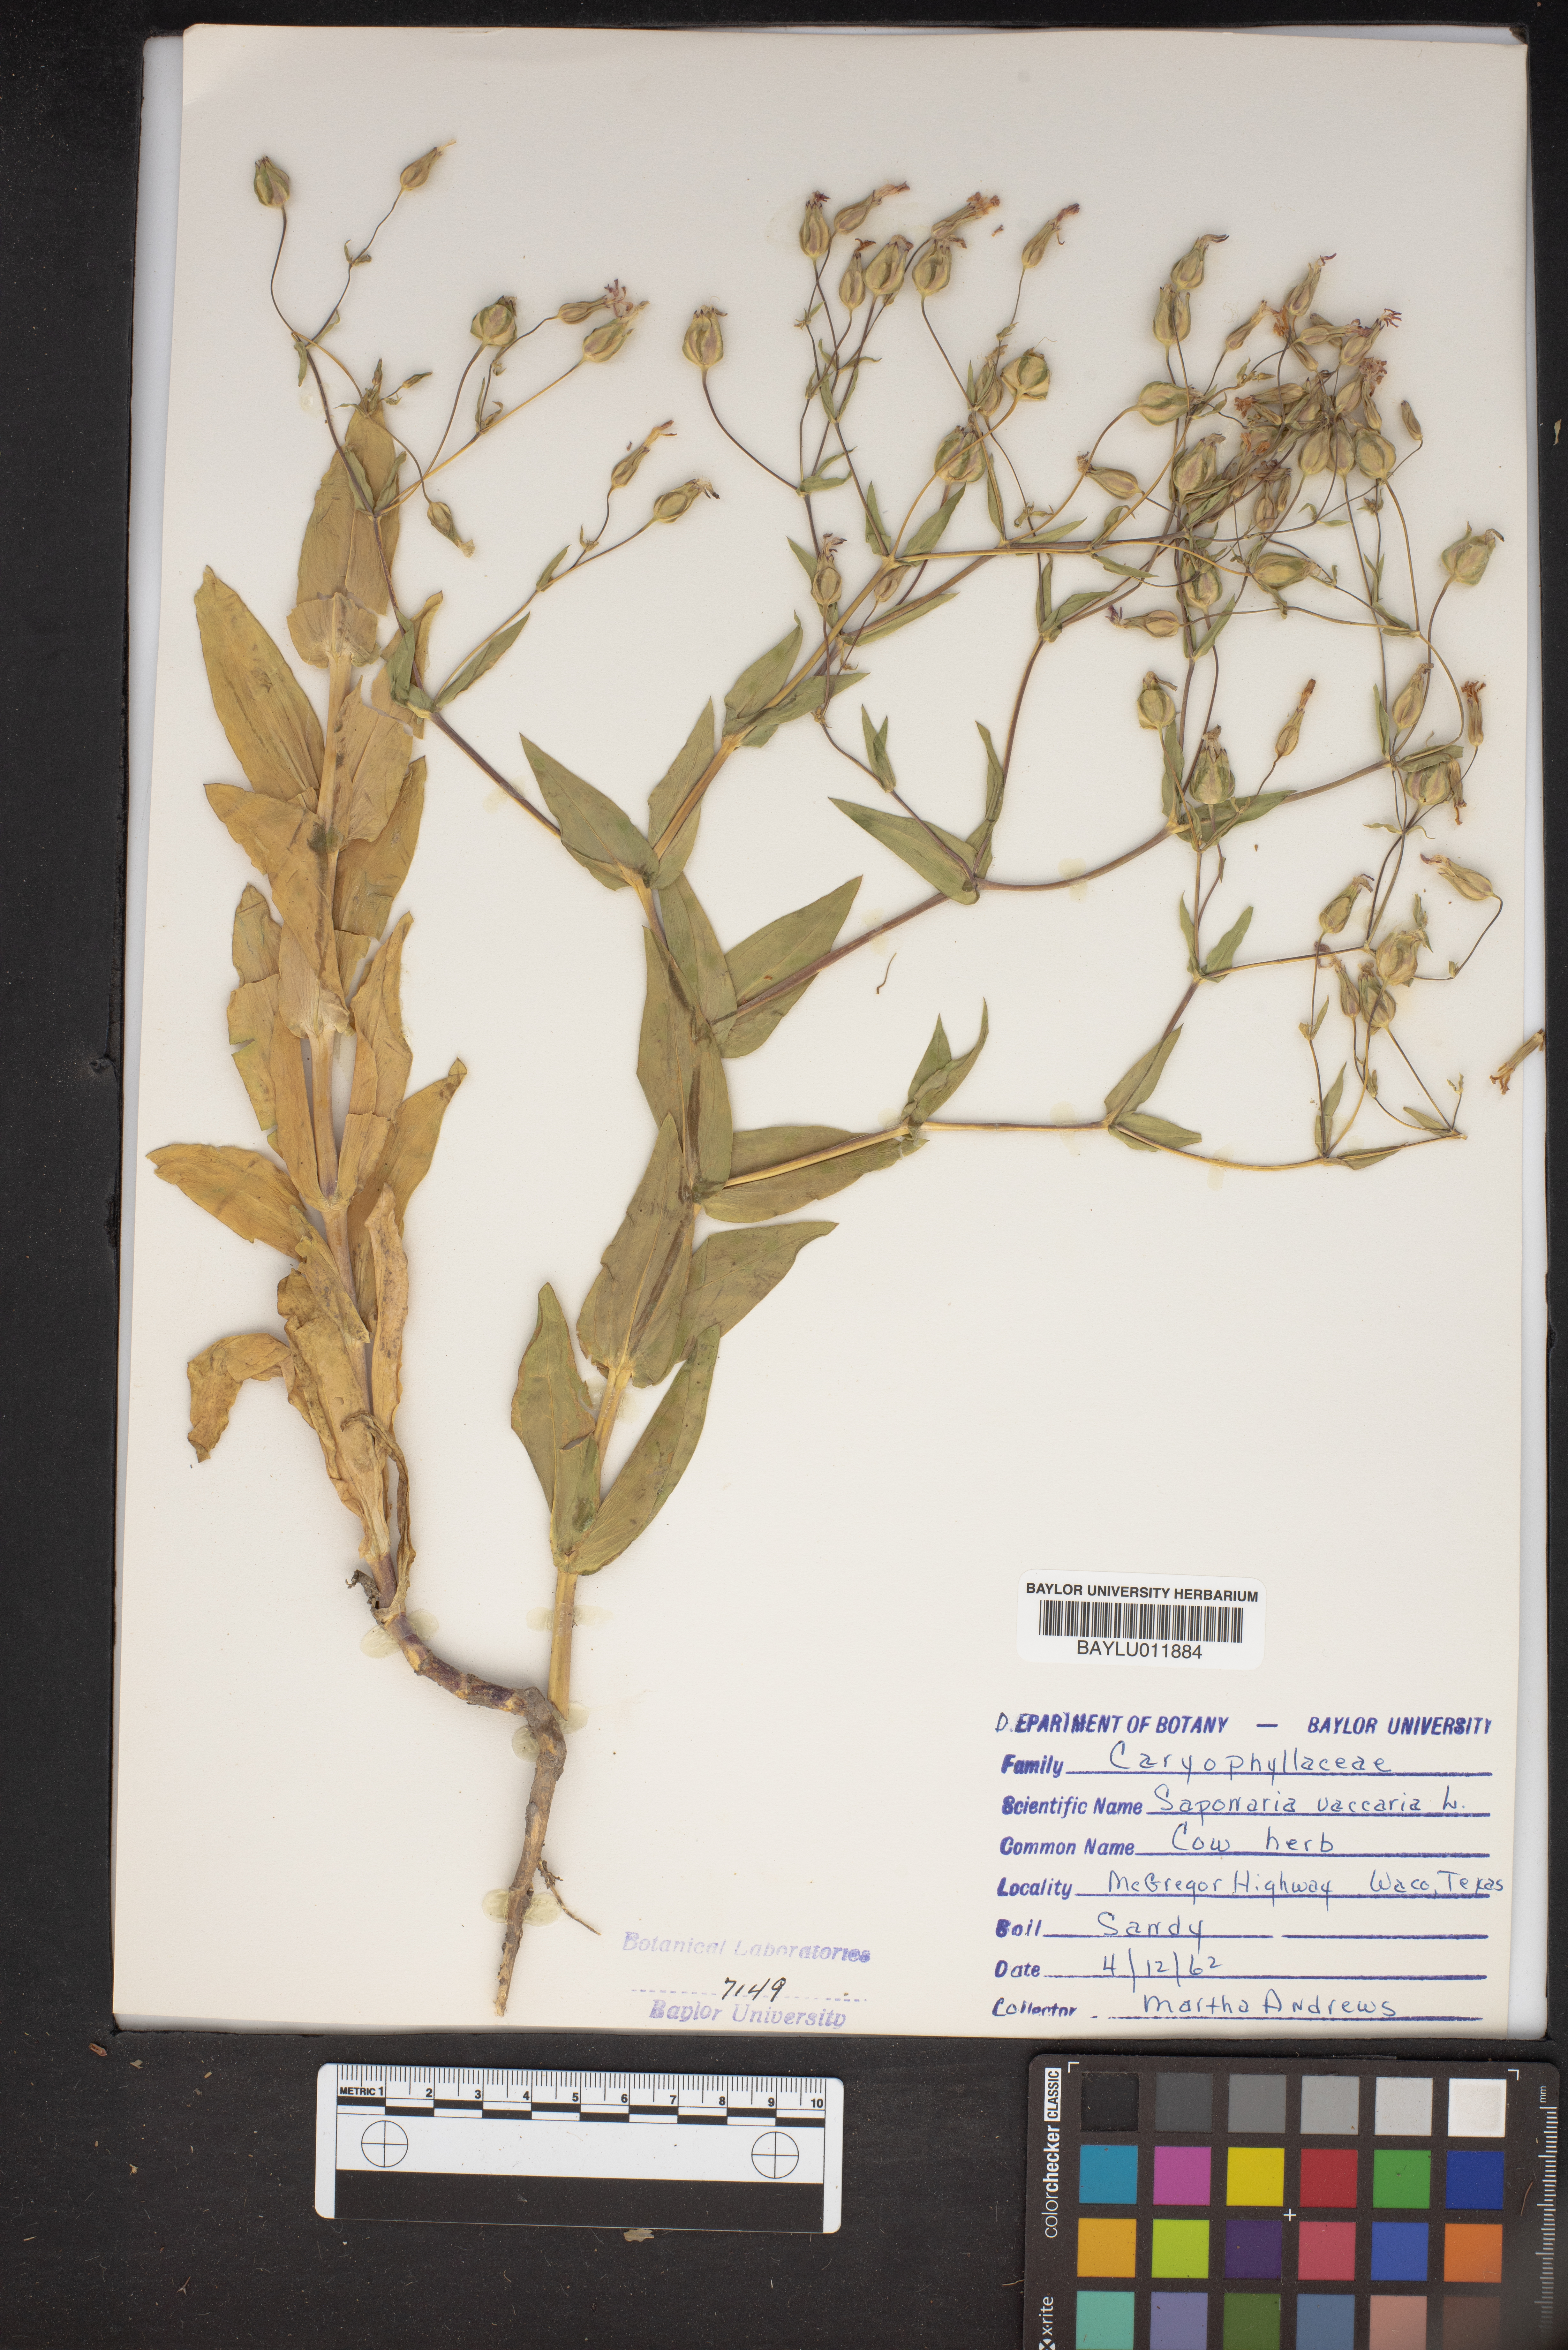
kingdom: Plantae
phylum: Tracheophyta
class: Magnoliopsida
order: Caryophyllales
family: Caryophyllaceae
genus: Gypsophila
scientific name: Gypsophila vaccaria
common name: Cow soapwort
